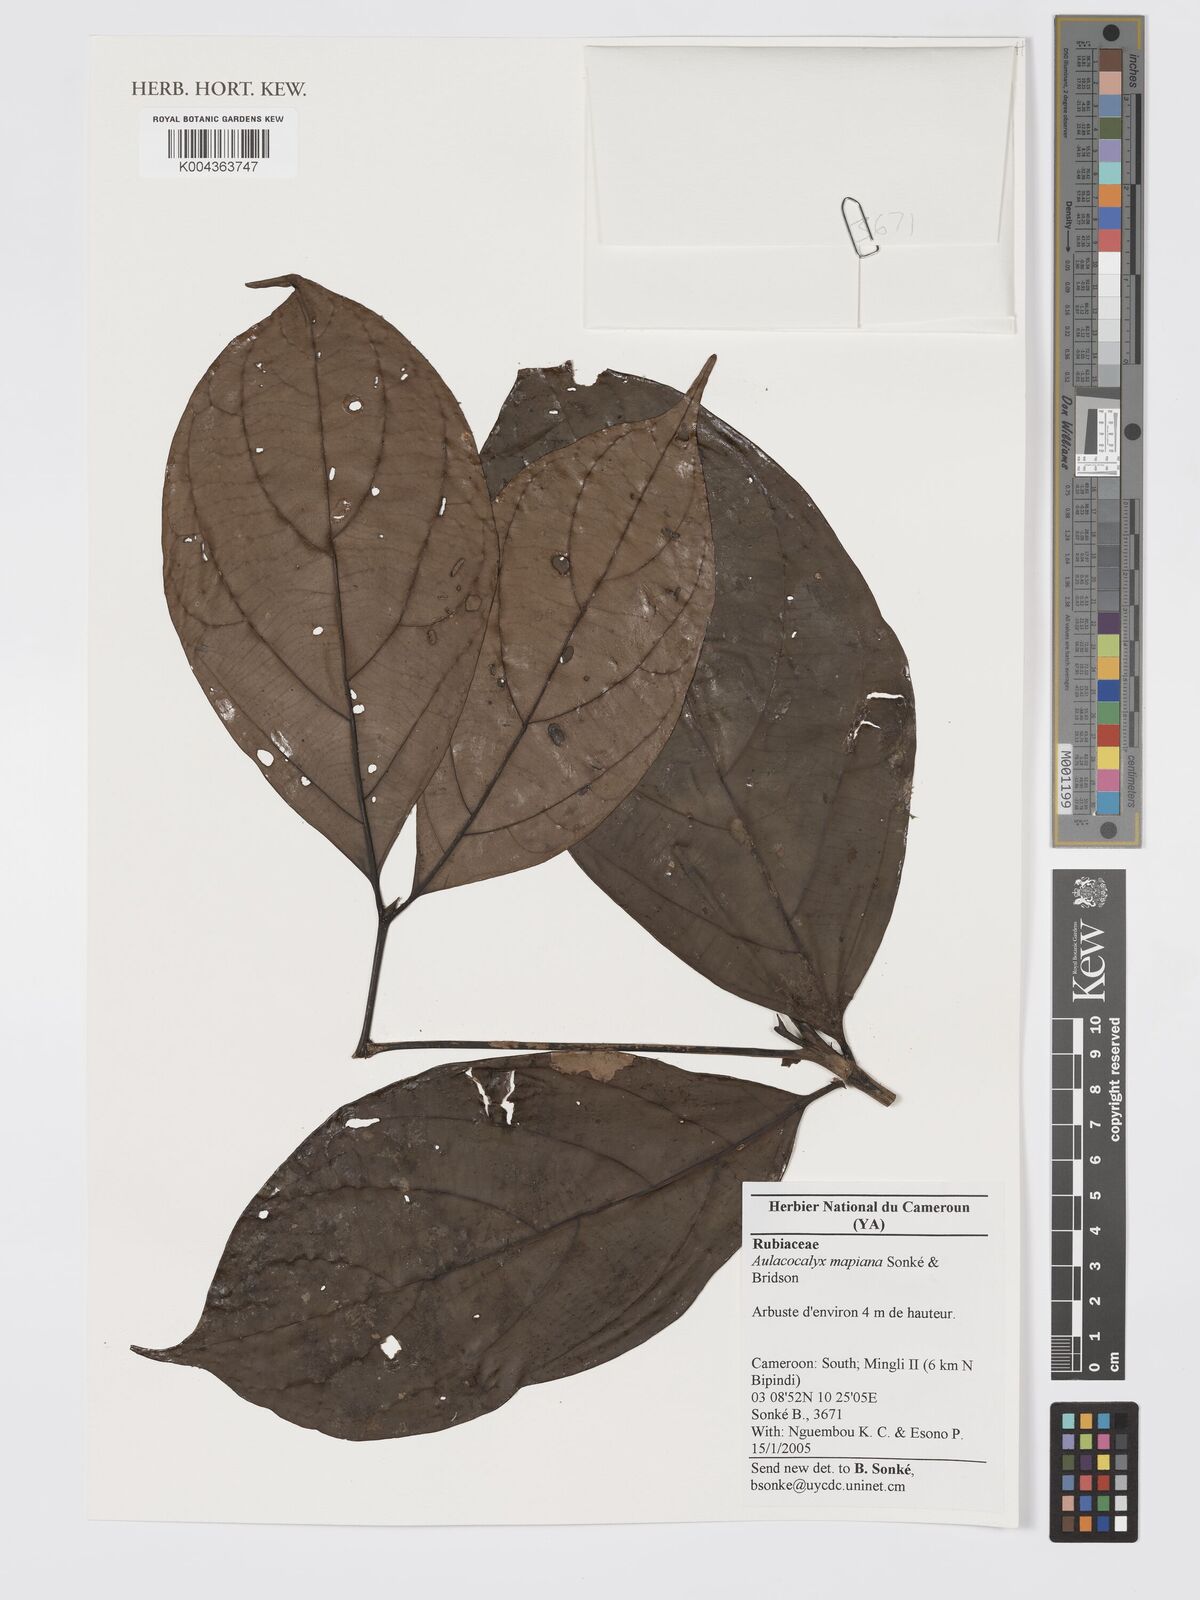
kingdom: Plantae
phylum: Tracheophyta
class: Magnoliopsida
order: Gentianales
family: Rubiaceae
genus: Aulacocalyx
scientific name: Aulacocalyx mapiana
